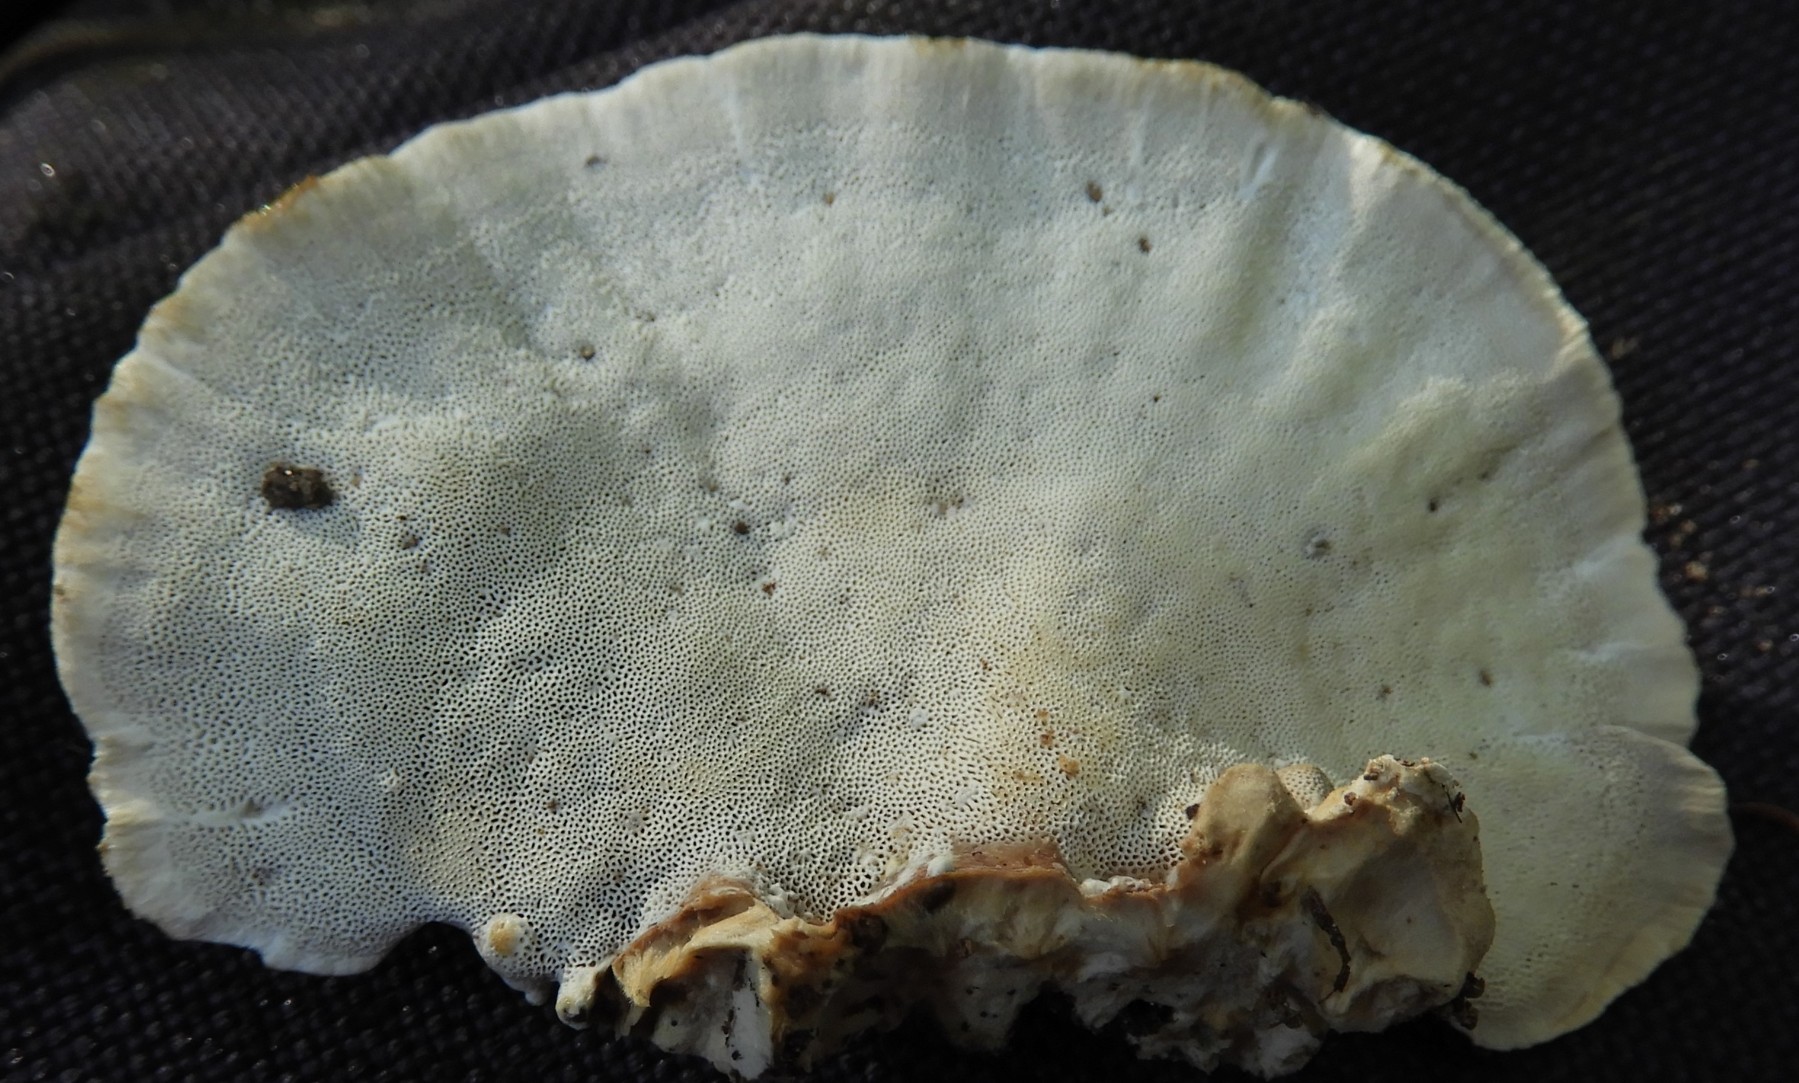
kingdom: Fungi
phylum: Basidiomycota
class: Agaricomycetes
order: Polyporales
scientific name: Polyporales
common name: poresvampordenen
